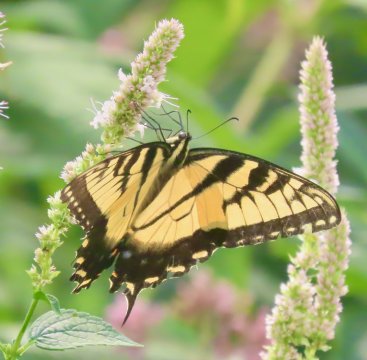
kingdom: Animalia
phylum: Arthropoda
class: Insecta
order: Lepidoptera
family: Papilionidae
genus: Pterourus
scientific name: Pterourus glaucus
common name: Eastern Tiger Swallowtail
